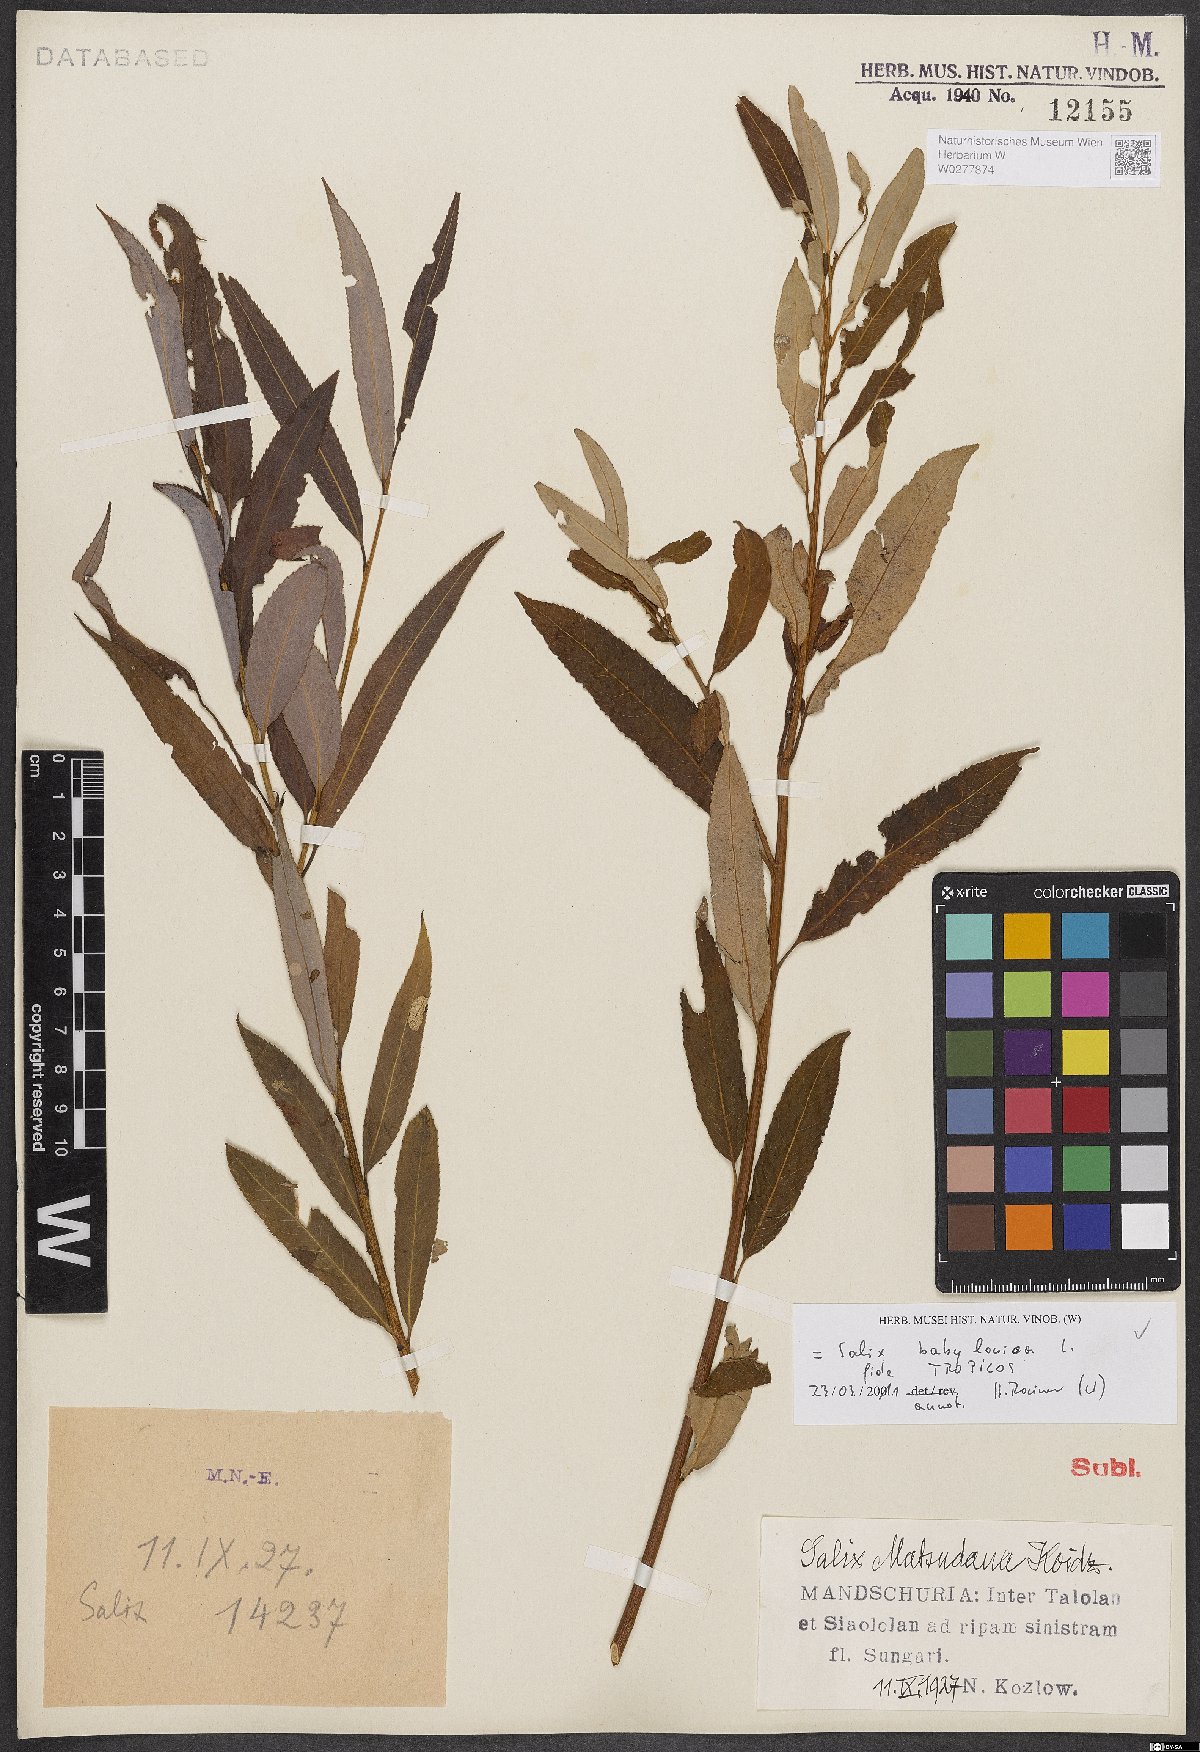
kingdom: Plantae
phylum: Tracheophyta
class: Magnoliopsida
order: Malpighiales
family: Salicaceae
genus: Salix
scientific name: Salix babylonica
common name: Weeping willow
